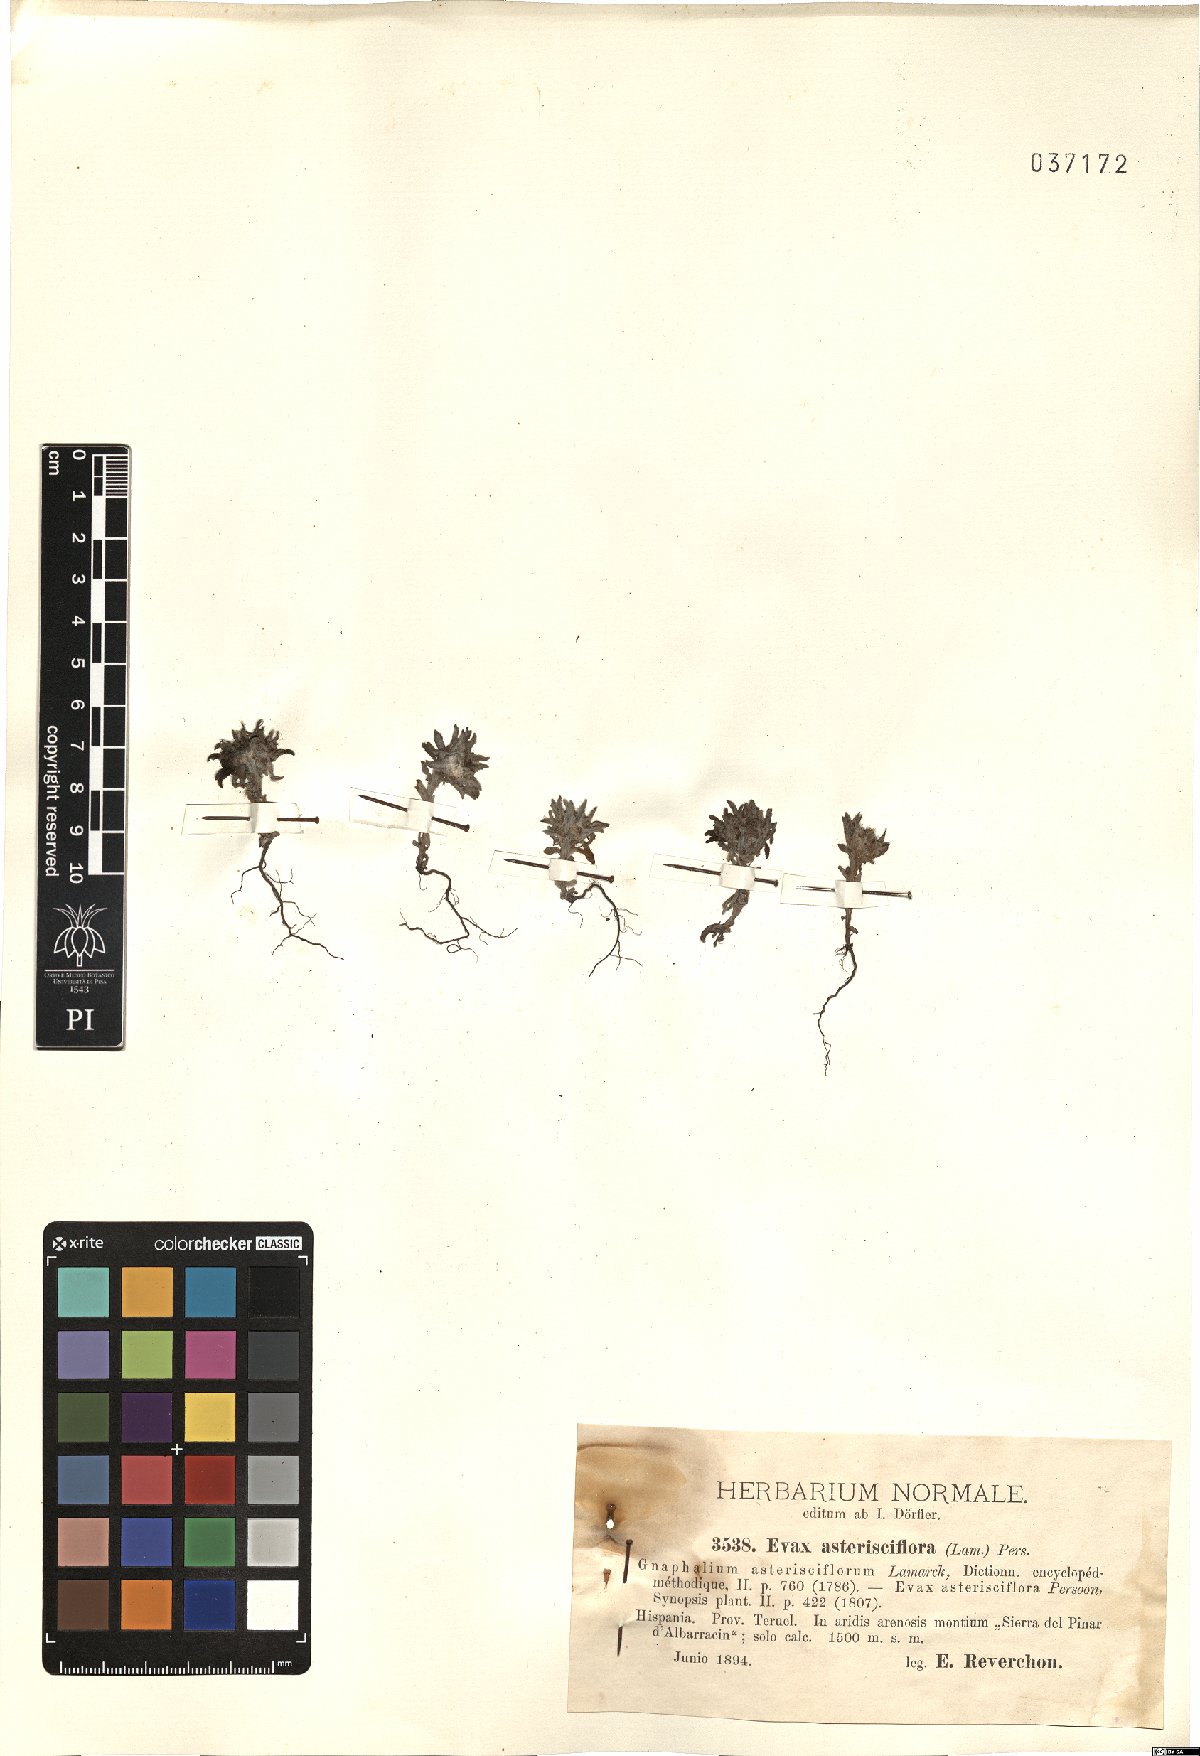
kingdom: Plantae
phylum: Tracheophyta
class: Magnoliopsida
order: Asterales
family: Asteraceae
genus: Filago
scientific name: Filago asterisciflora
